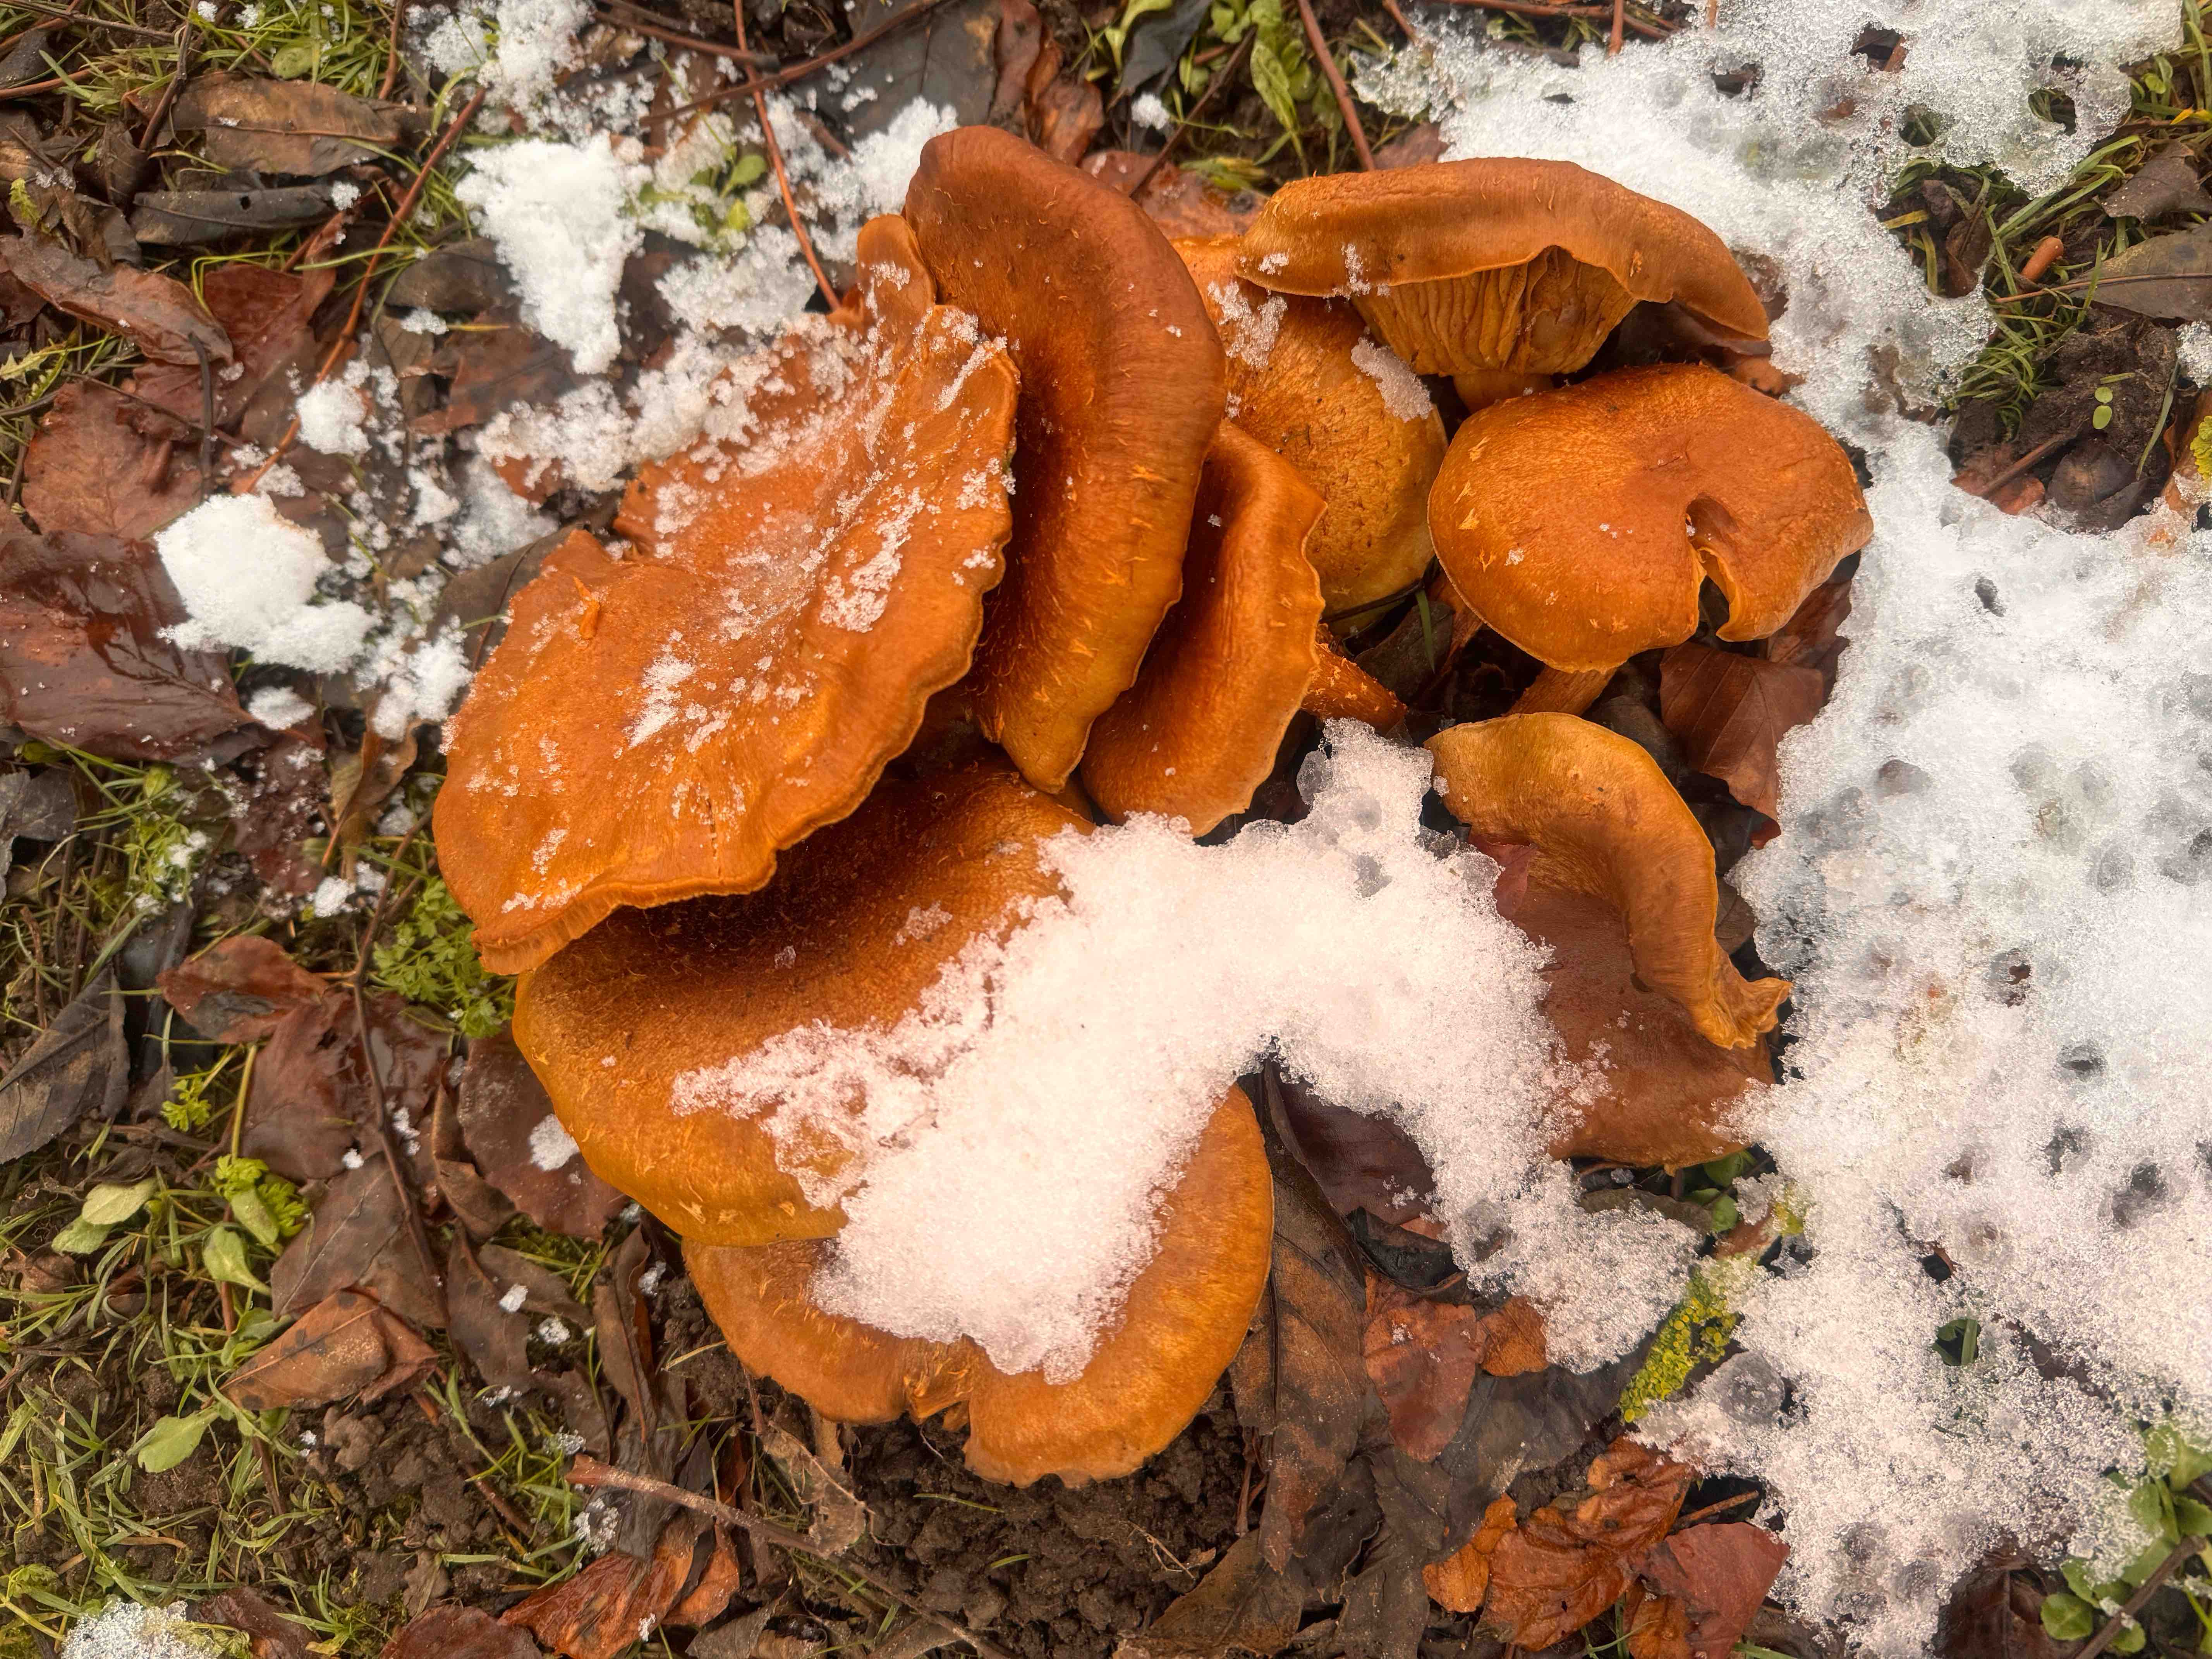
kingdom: Fungi
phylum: Basidiomycota
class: Agaricomycetes
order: Agaricales
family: Hymenogastraceae
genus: Gymnopilus
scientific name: Gymnopilus spectabilis
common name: fibret flammehat
